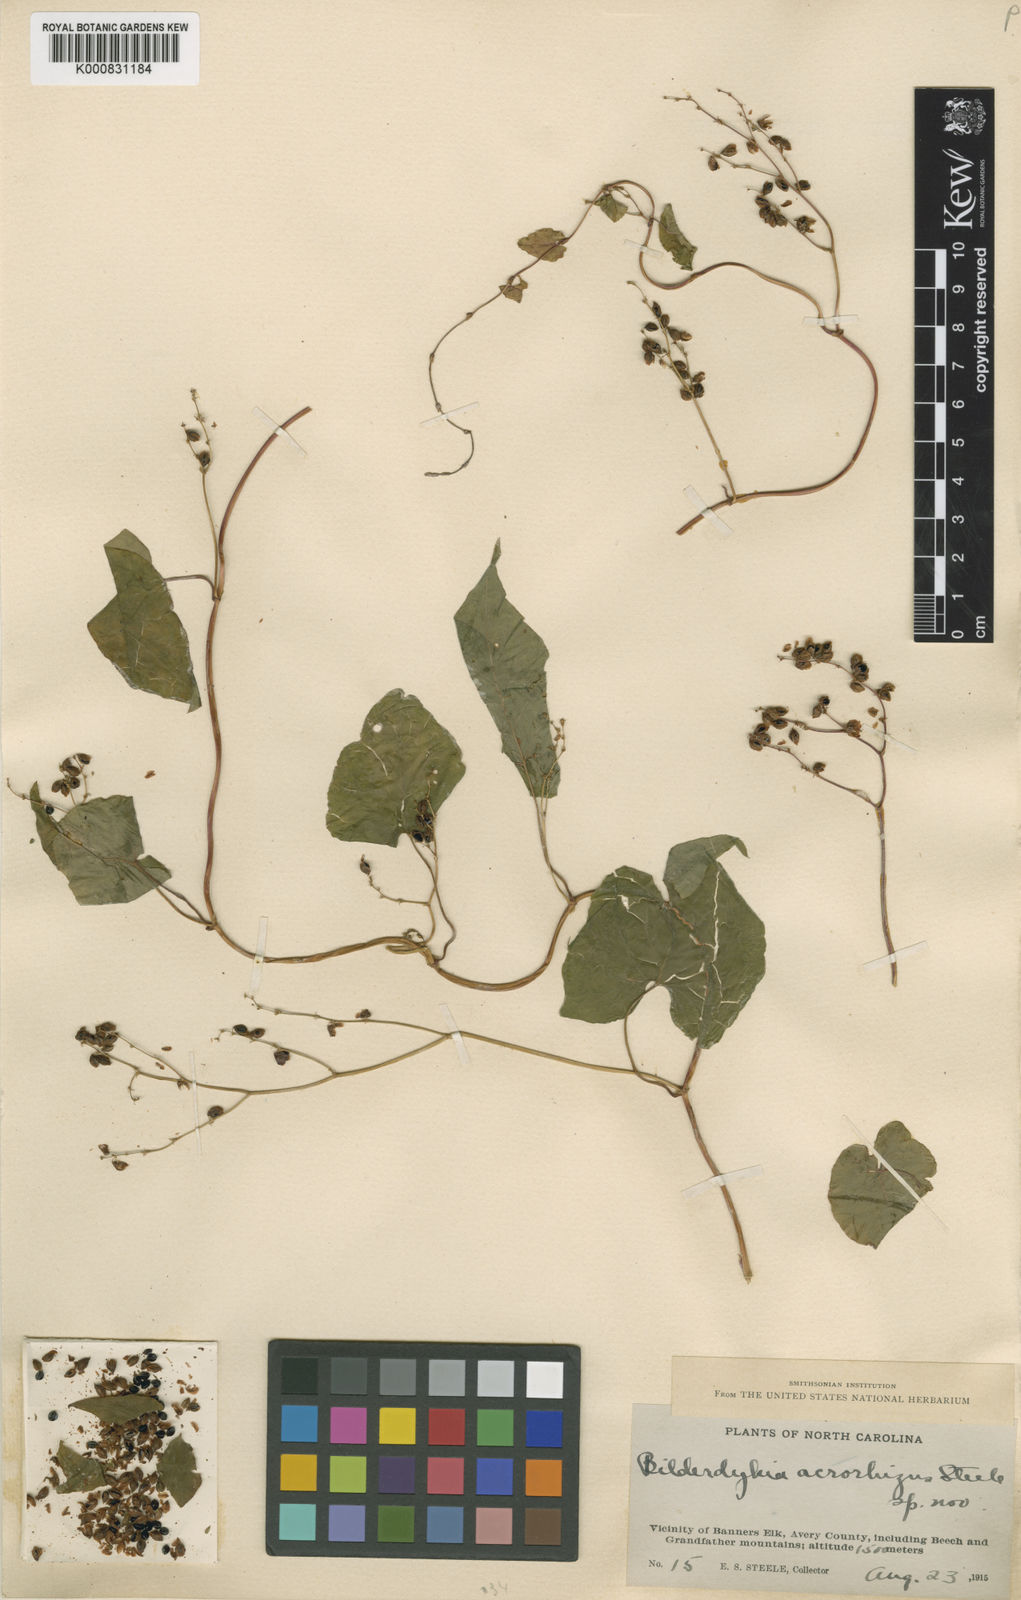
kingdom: Plantae
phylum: Tracheophyta
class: Magnoliopsida
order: Caryophyllales
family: Polygonaceae
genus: Fallopia
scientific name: Fallopia
